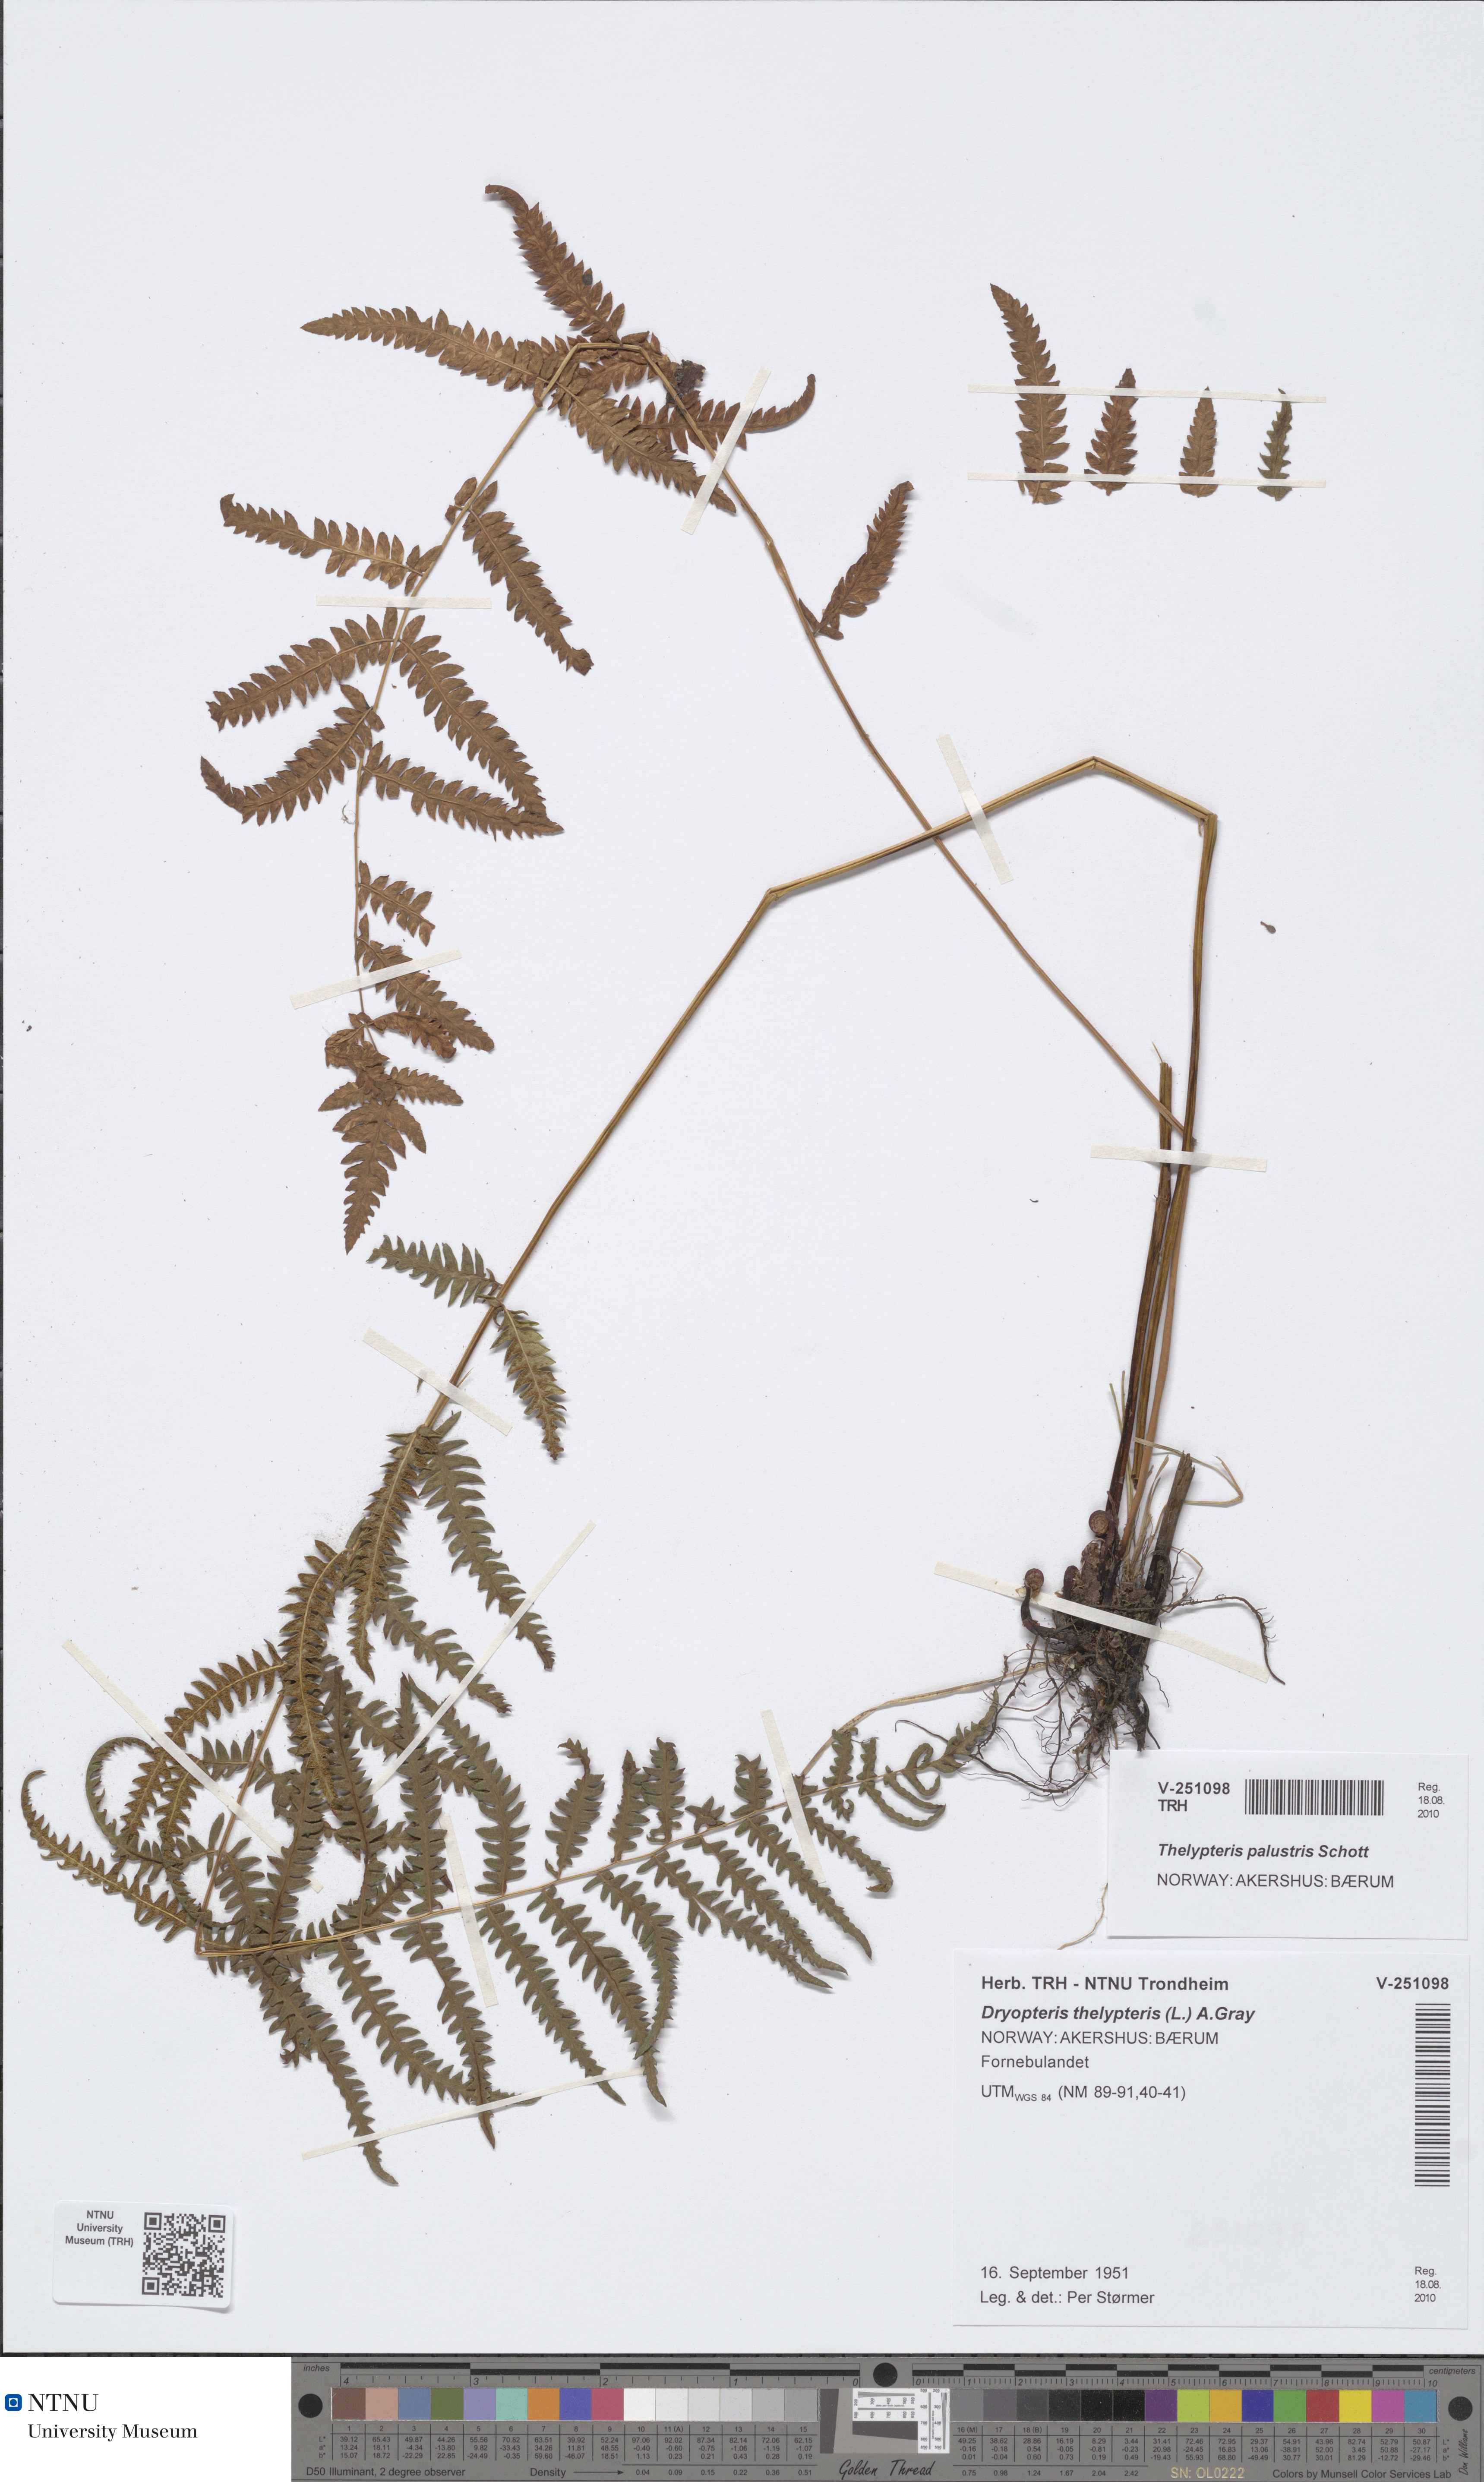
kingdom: Plantae
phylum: Tracheophyta
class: Polypodiopsida
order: Polypodiales
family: Thelypteridaceae
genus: Thelypteris
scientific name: Thelypteris palustris
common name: Marsh fern
